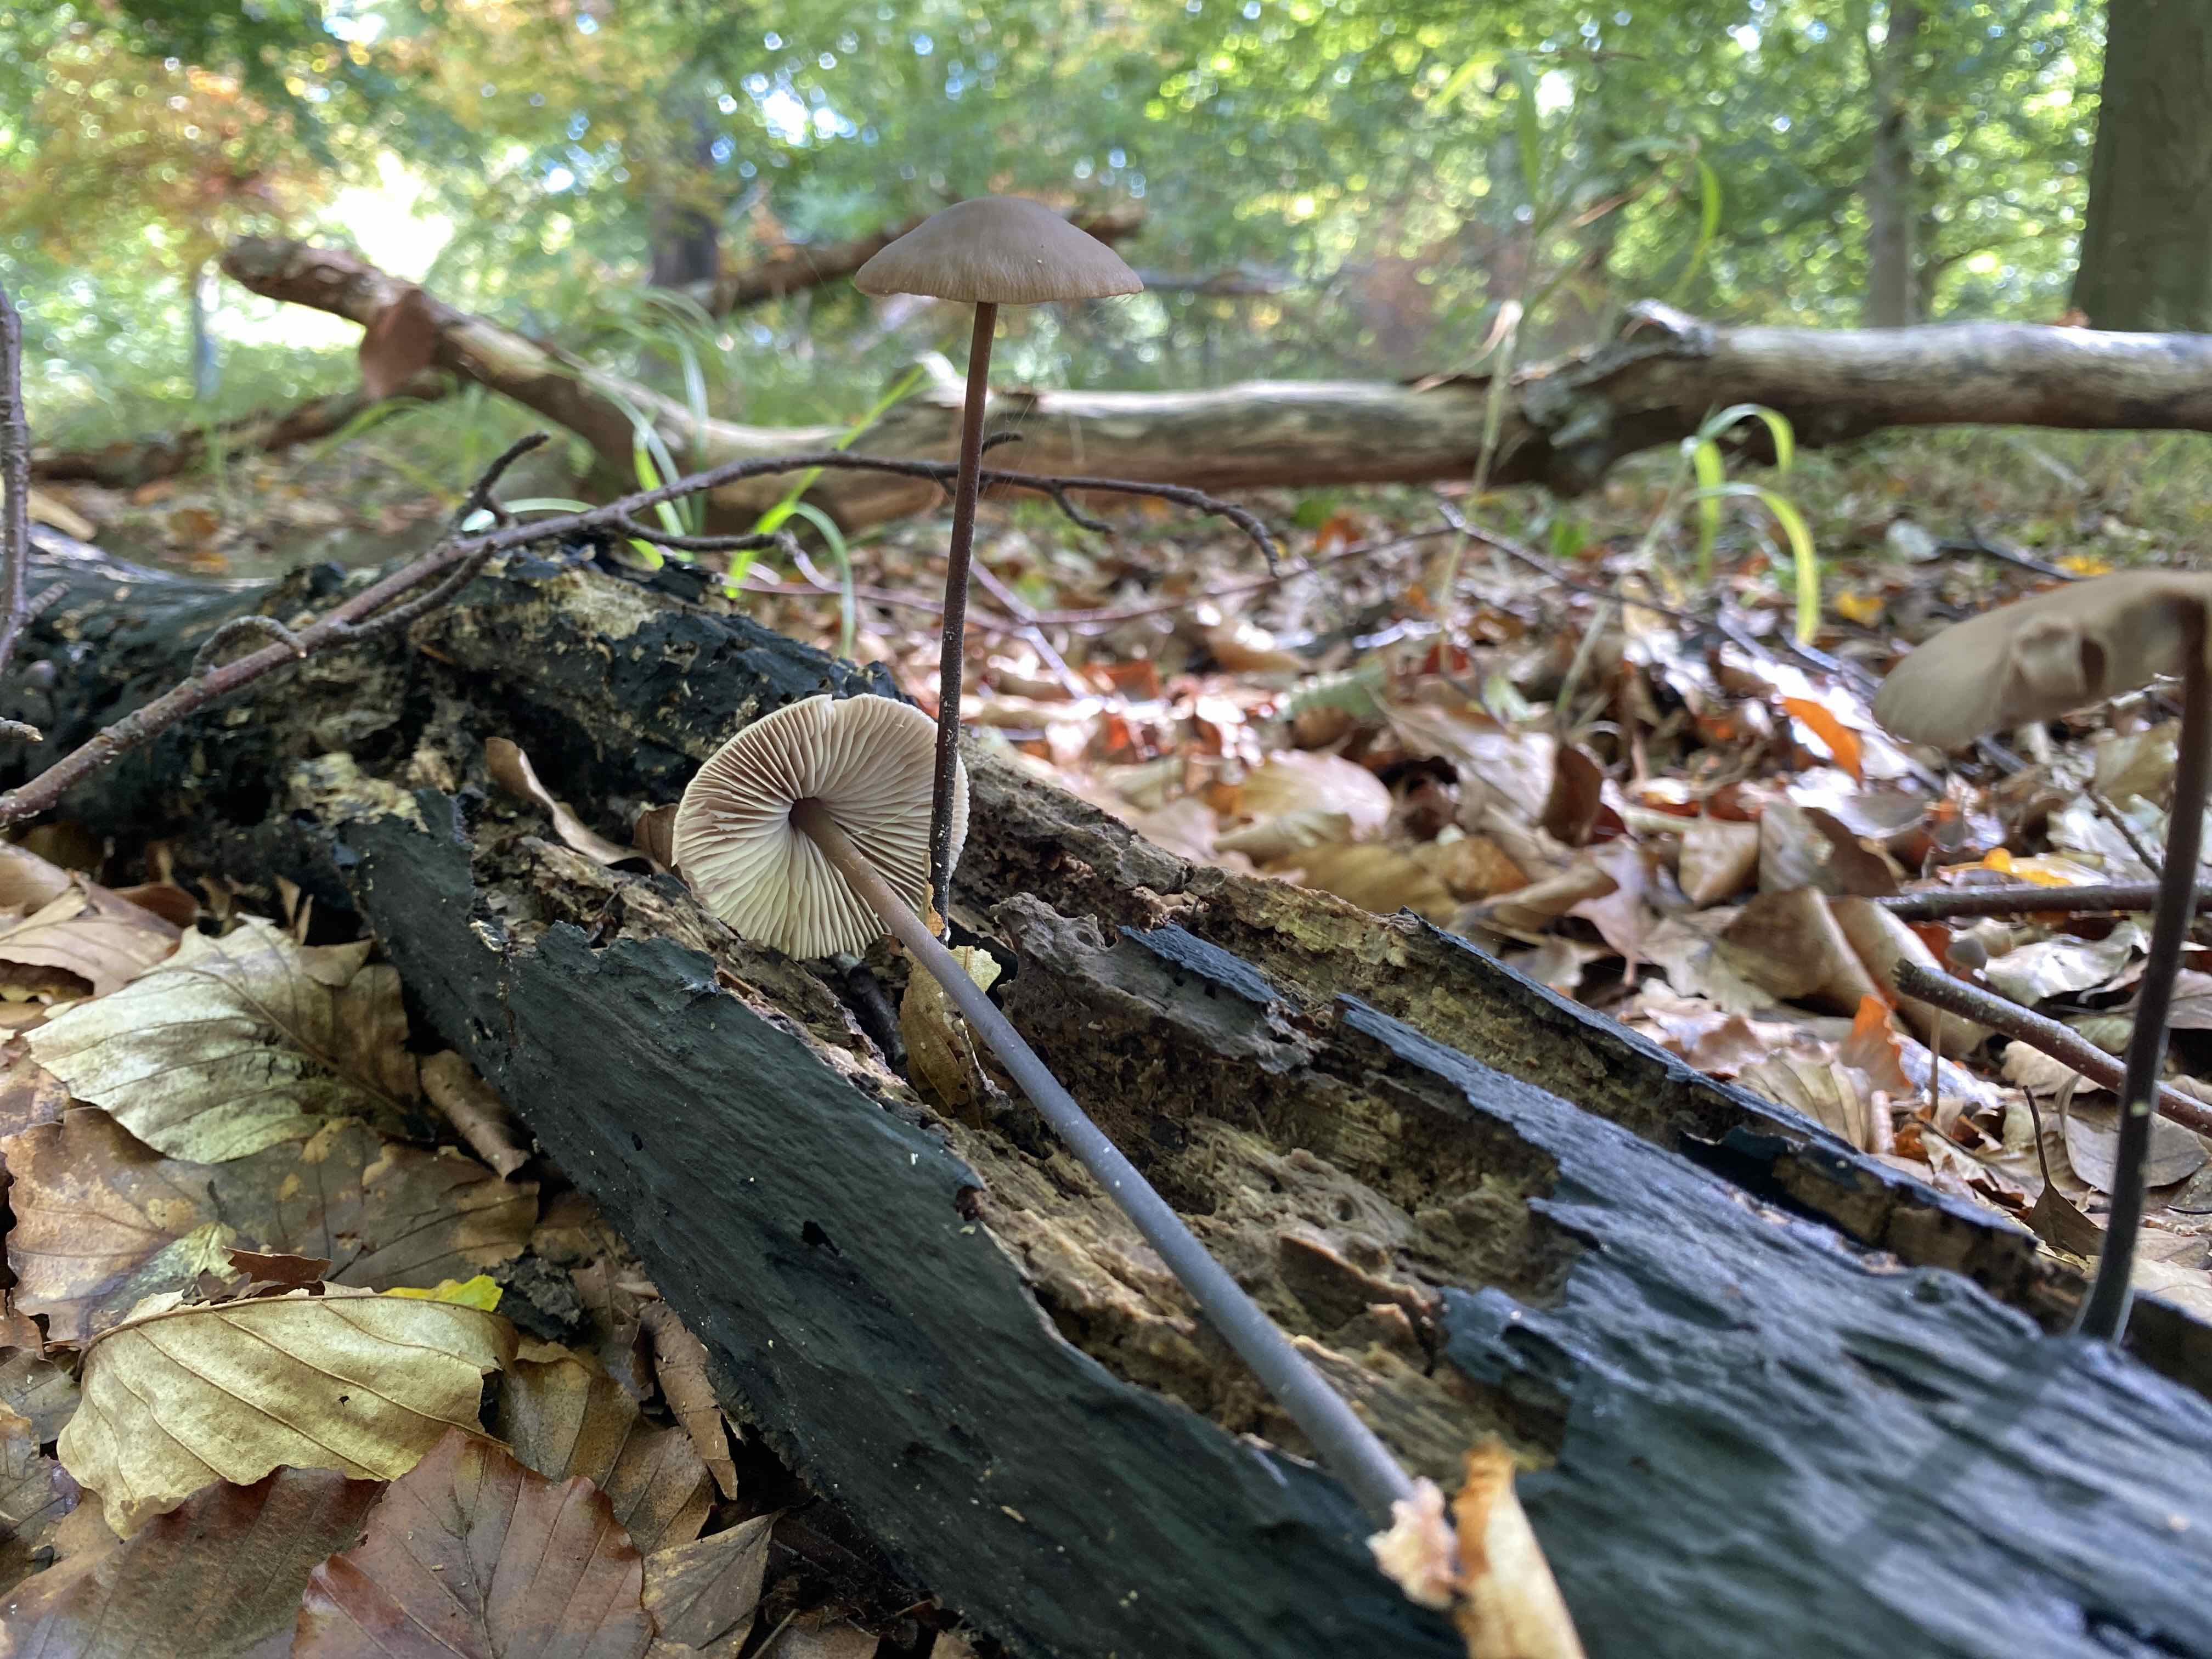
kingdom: Fungi
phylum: Basidiomycota
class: Agaricomycetes
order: Agaricales
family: Omphalotaceae
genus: Mycetinis
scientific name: Mycetinis alliaceus
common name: stor løghat
